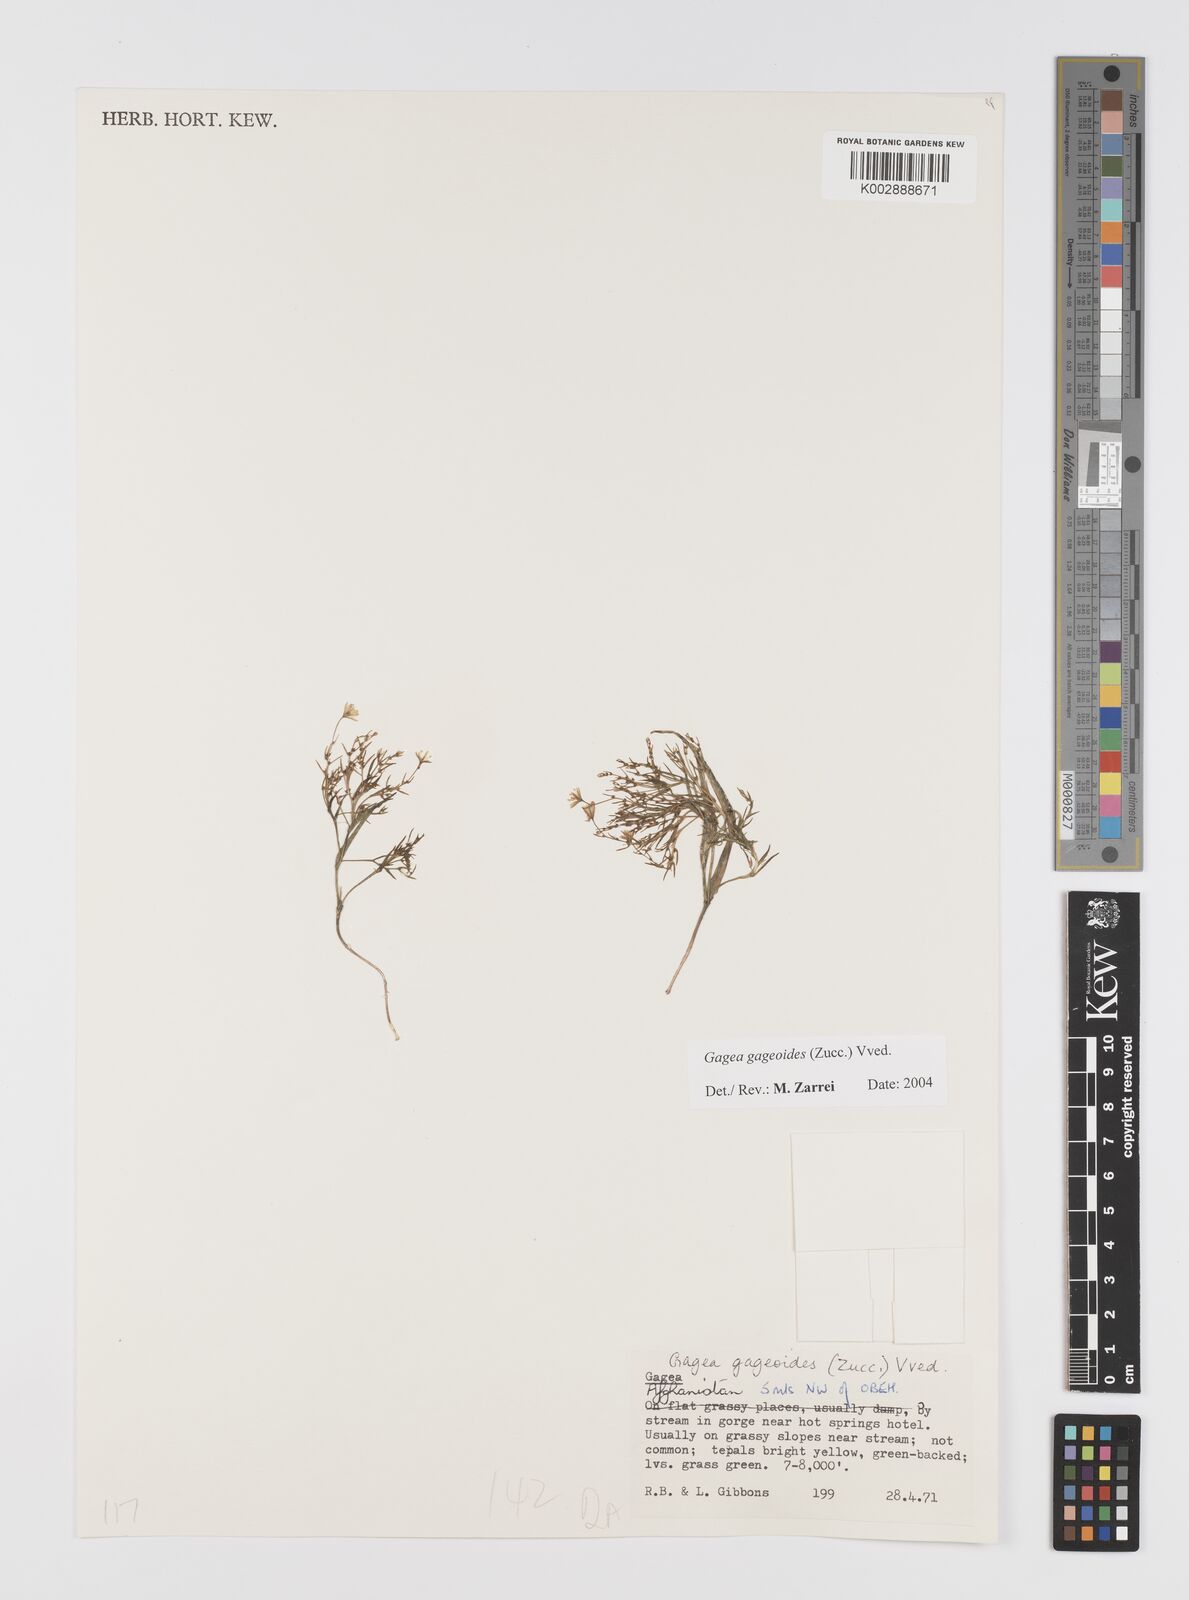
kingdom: Plantae
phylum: Tracheophyta
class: Liliopsida
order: Liliales
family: Liliaceae
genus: Gagea
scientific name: Gagea gageoides
